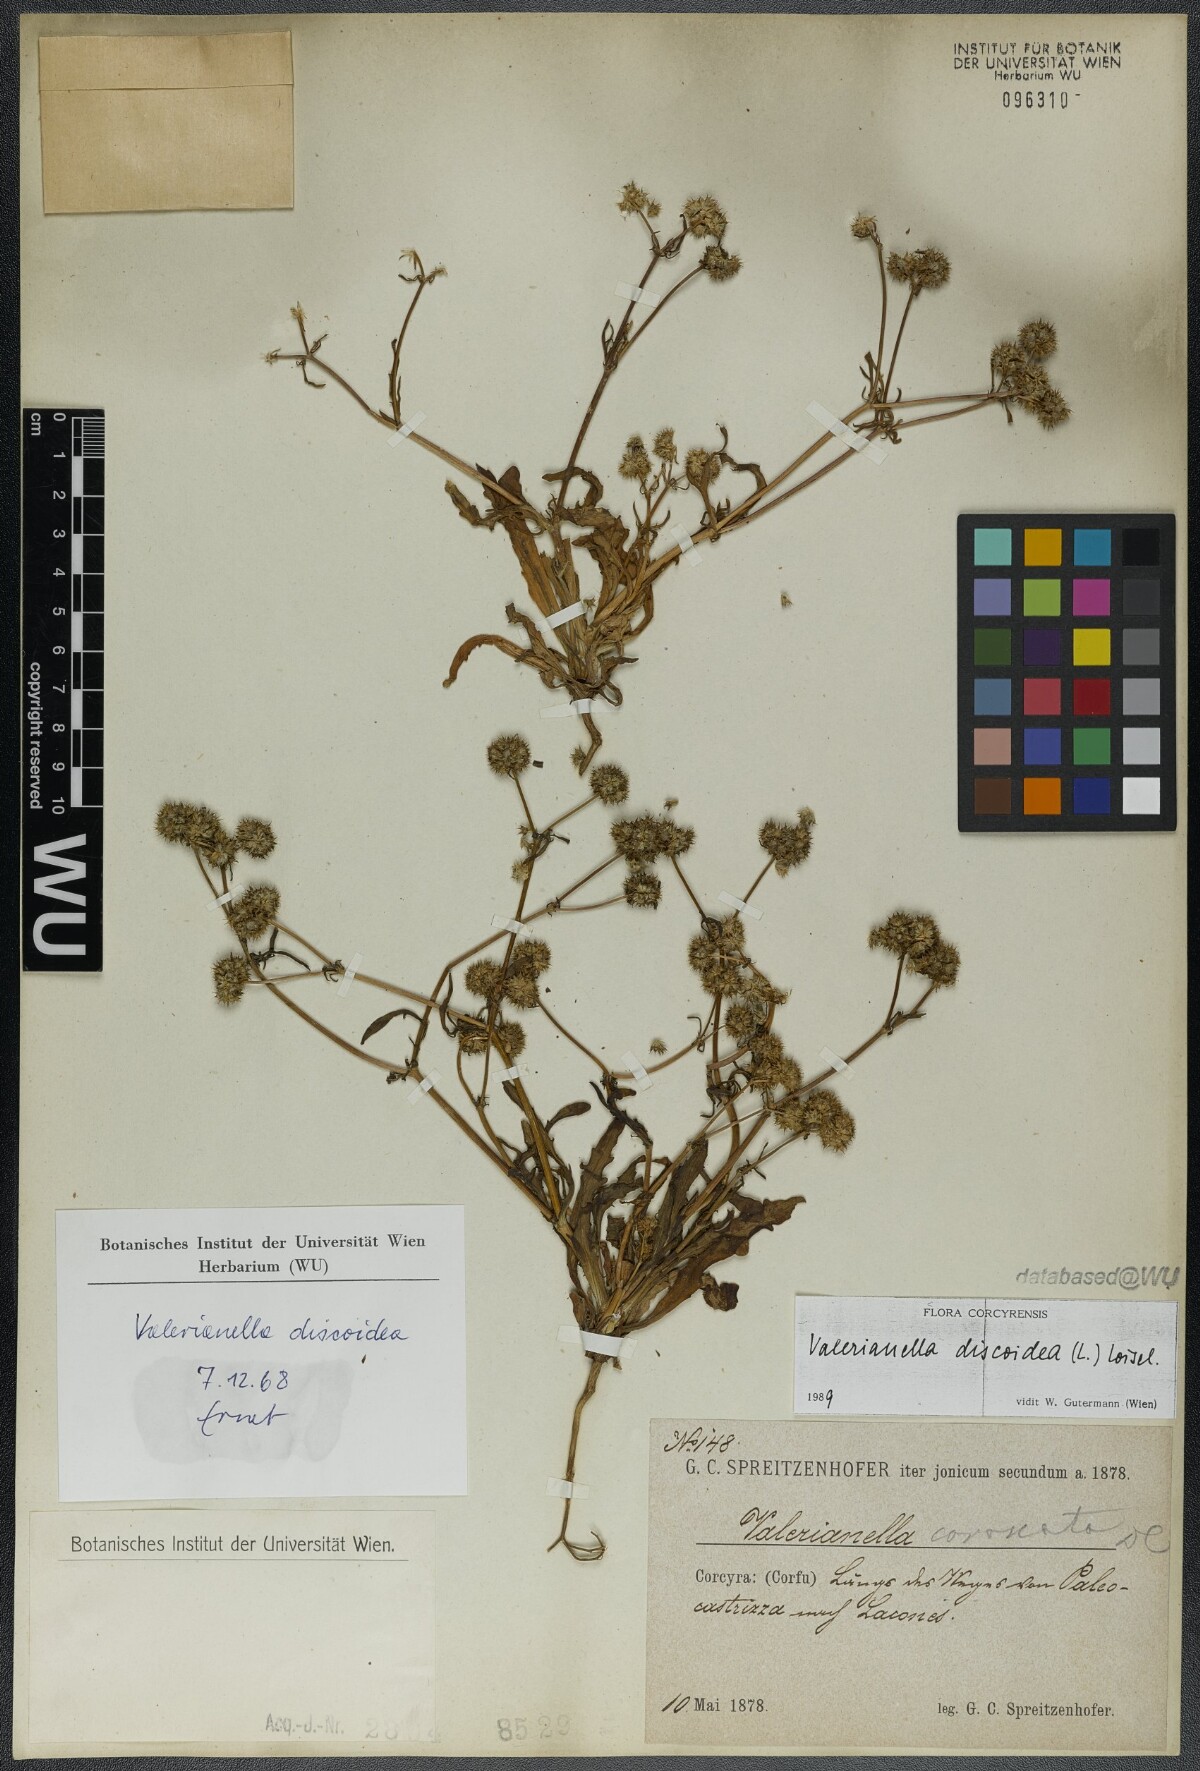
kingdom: Plantae
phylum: Tracheophyta
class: Magnoliopsida
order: Dipsacales
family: Caprifoliaceae
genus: Valerianella
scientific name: Valerianella discoidea
